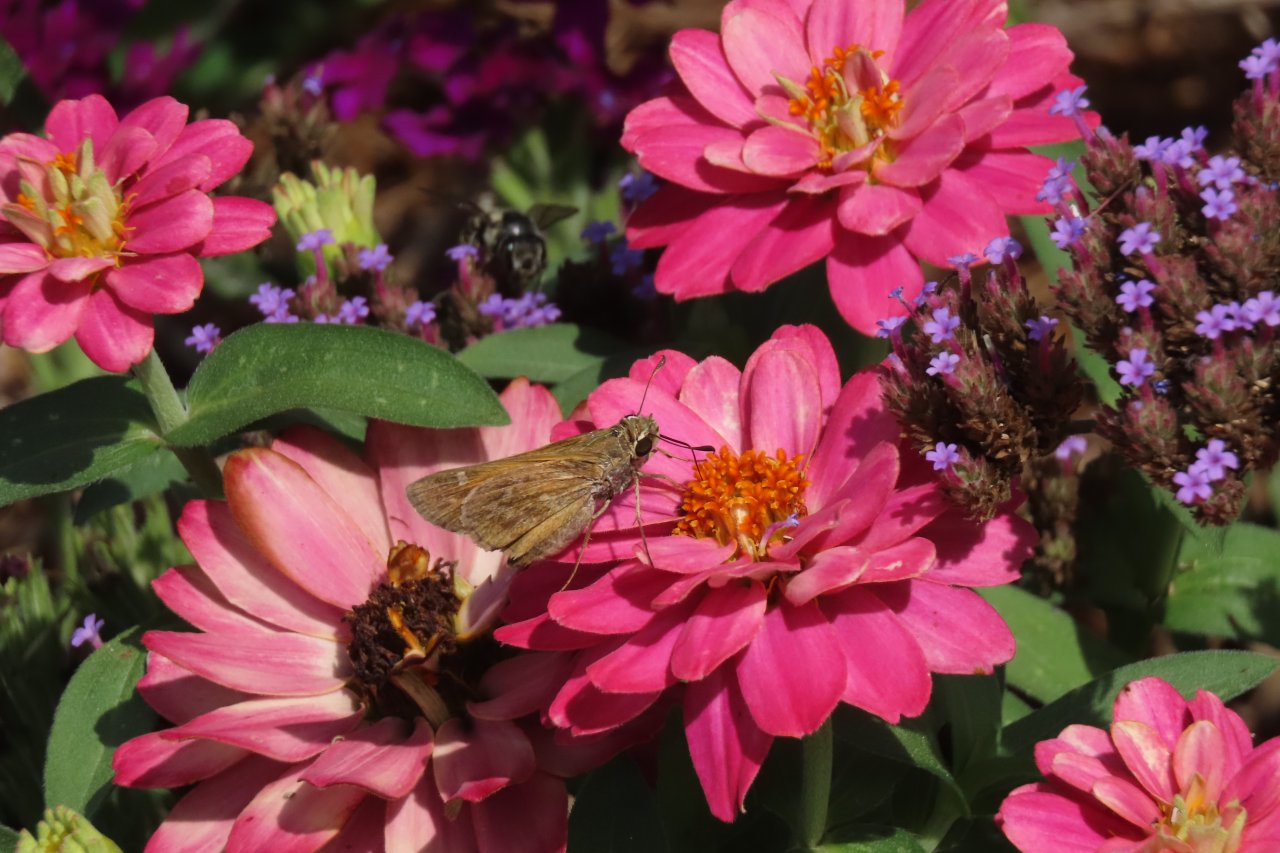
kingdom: Animalia
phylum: Arthropoda
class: Insecta
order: Lepidoptera
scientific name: Lepidoptera
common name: Butterflies
